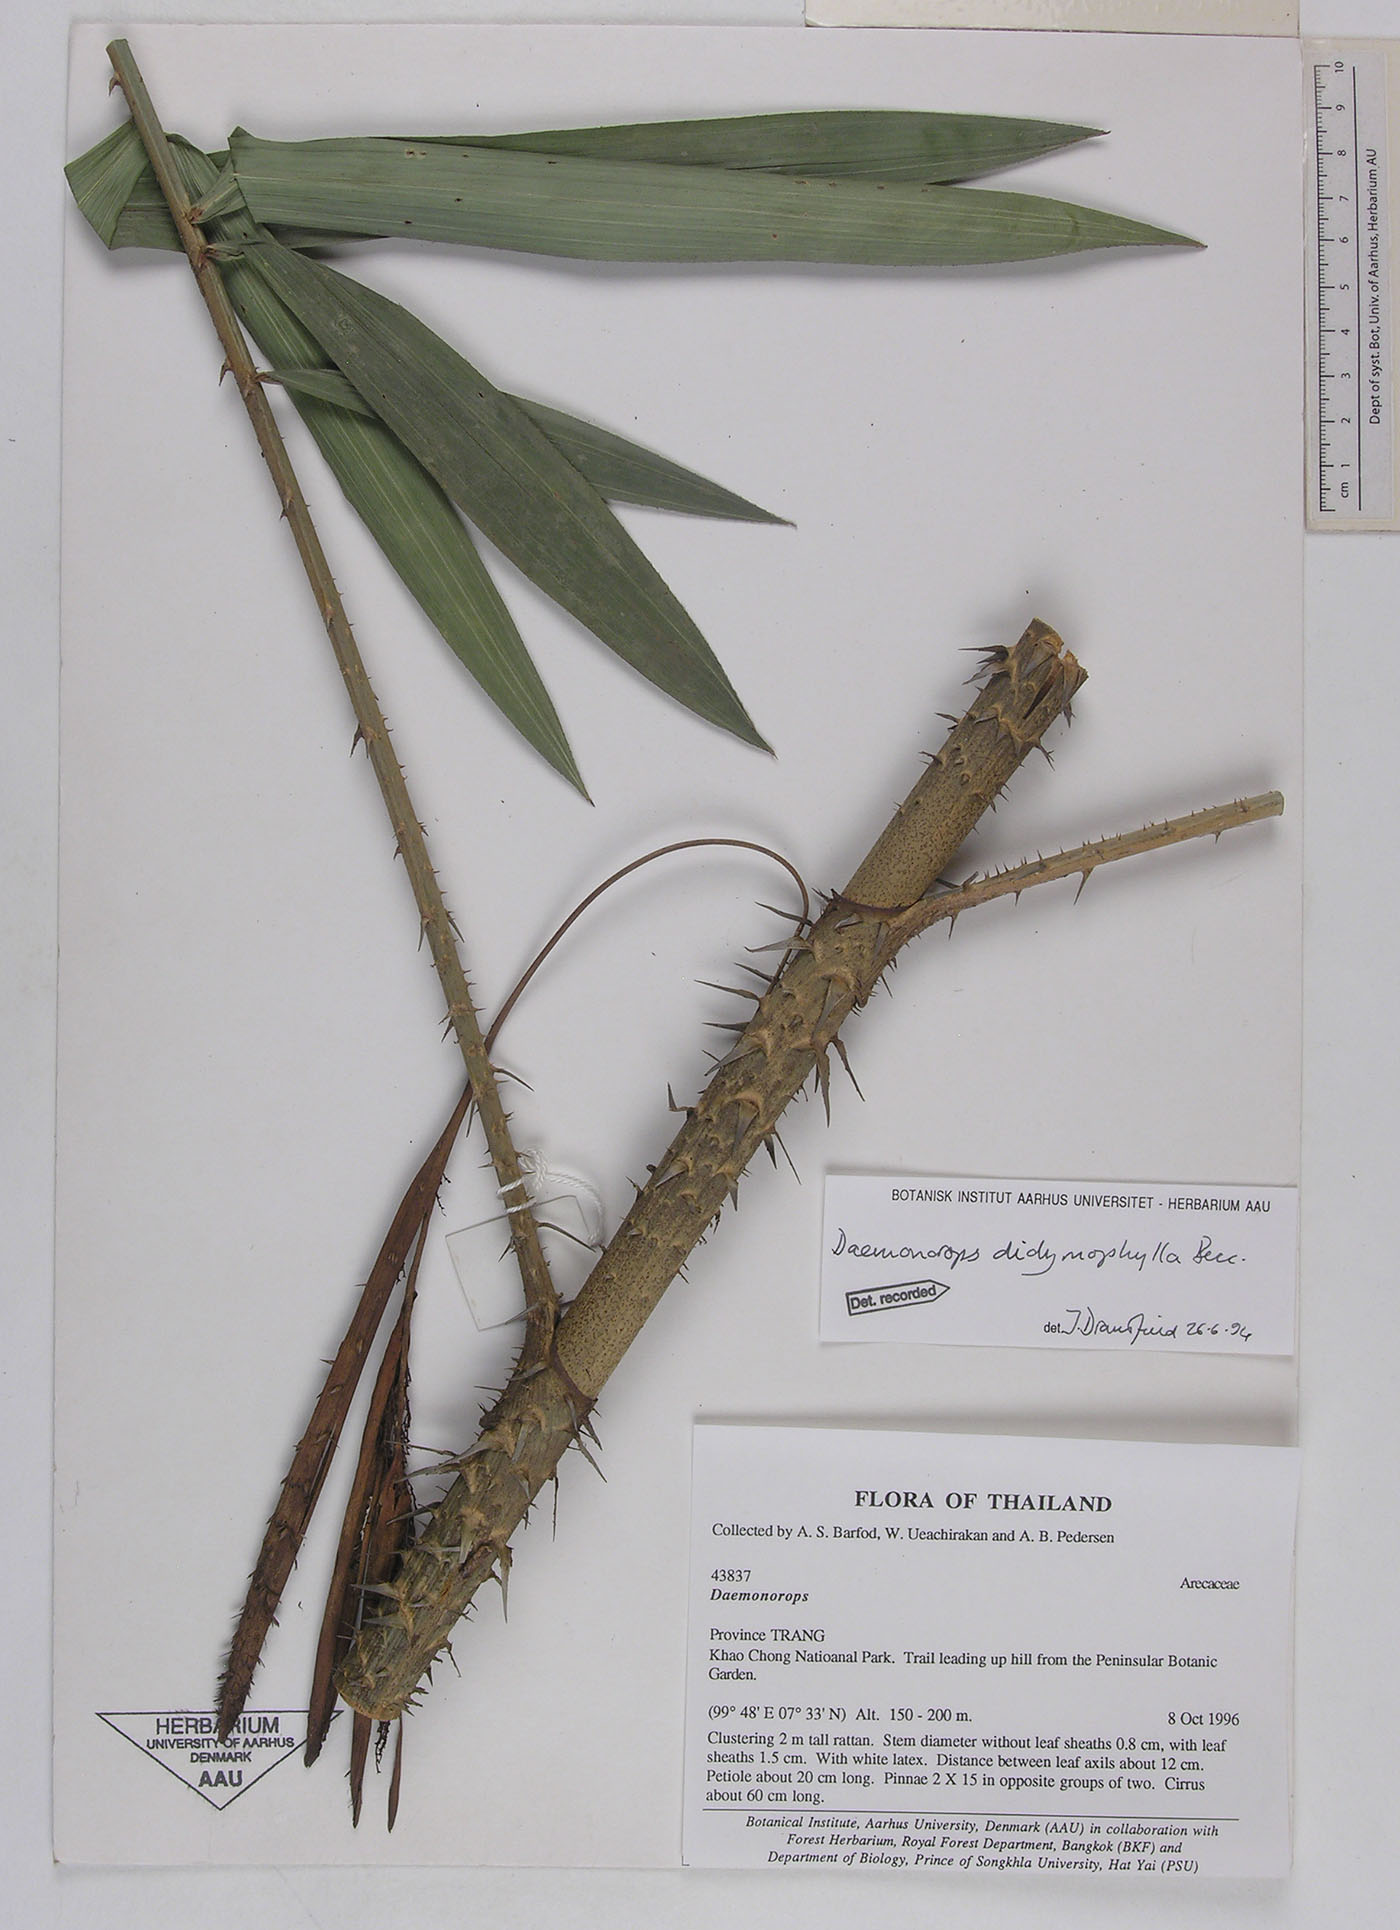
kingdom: Plantae
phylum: Tracheophyta
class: Liliopsida
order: Arecales
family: Arecaceae
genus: Calamus
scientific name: Calamus gracilipes
